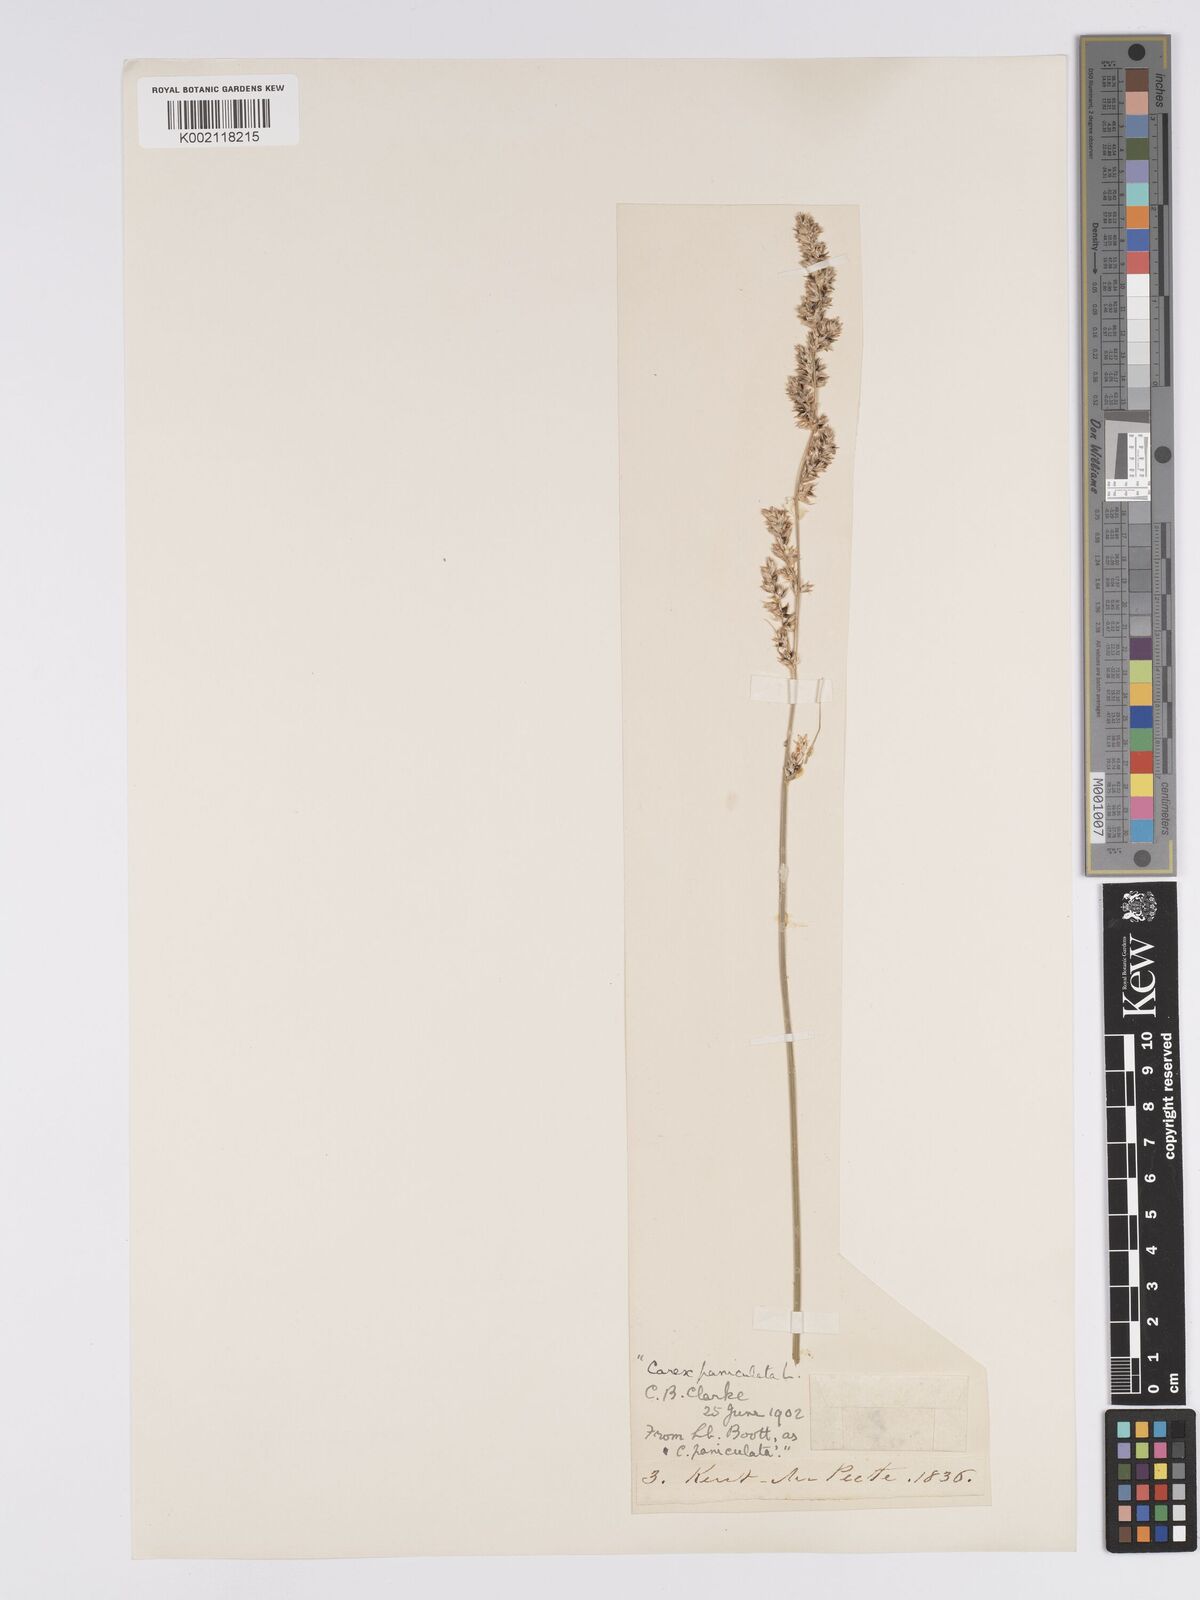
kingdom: Plantae
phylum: Tracheophyta
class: Liliopsida
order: Poales
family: Cyperaceae
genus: Carex
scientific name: Carex paniculata
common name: Greater tussock-sedge
